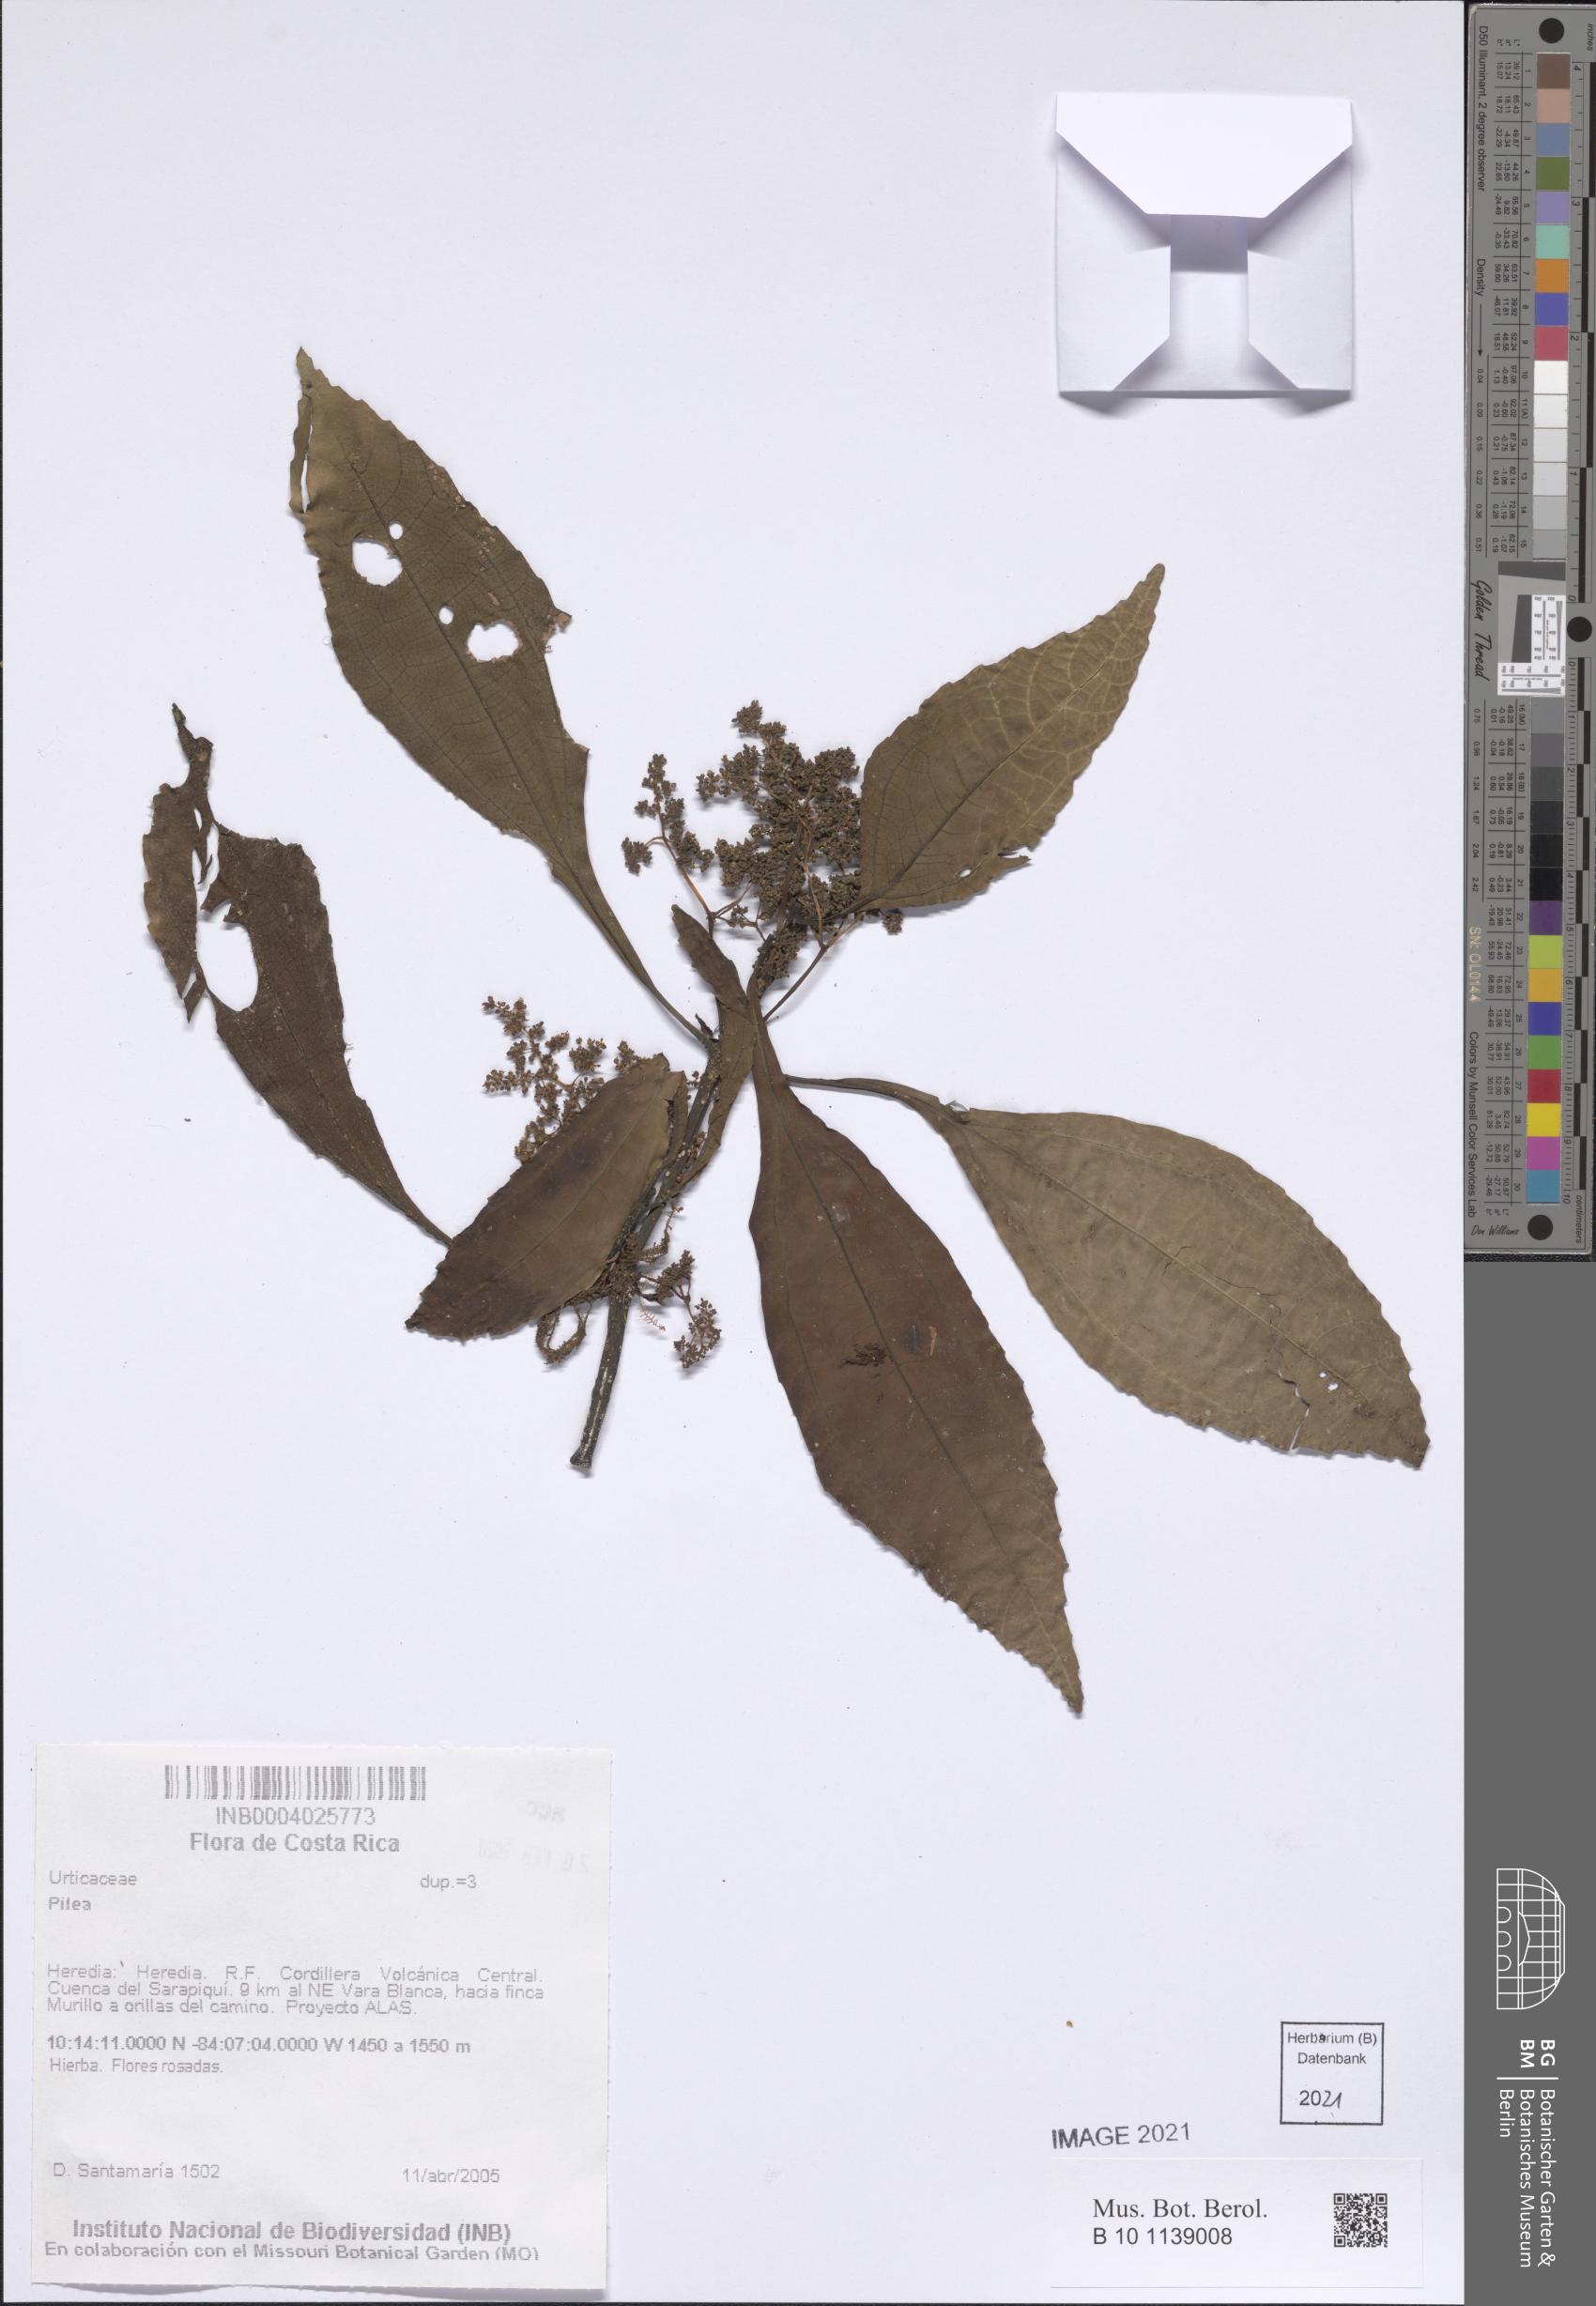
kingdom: Plantae
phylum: Tracheophyta
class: Magnoliopsida
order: Rosales
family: Urticaceae
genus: Pilea
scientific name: Pilea
